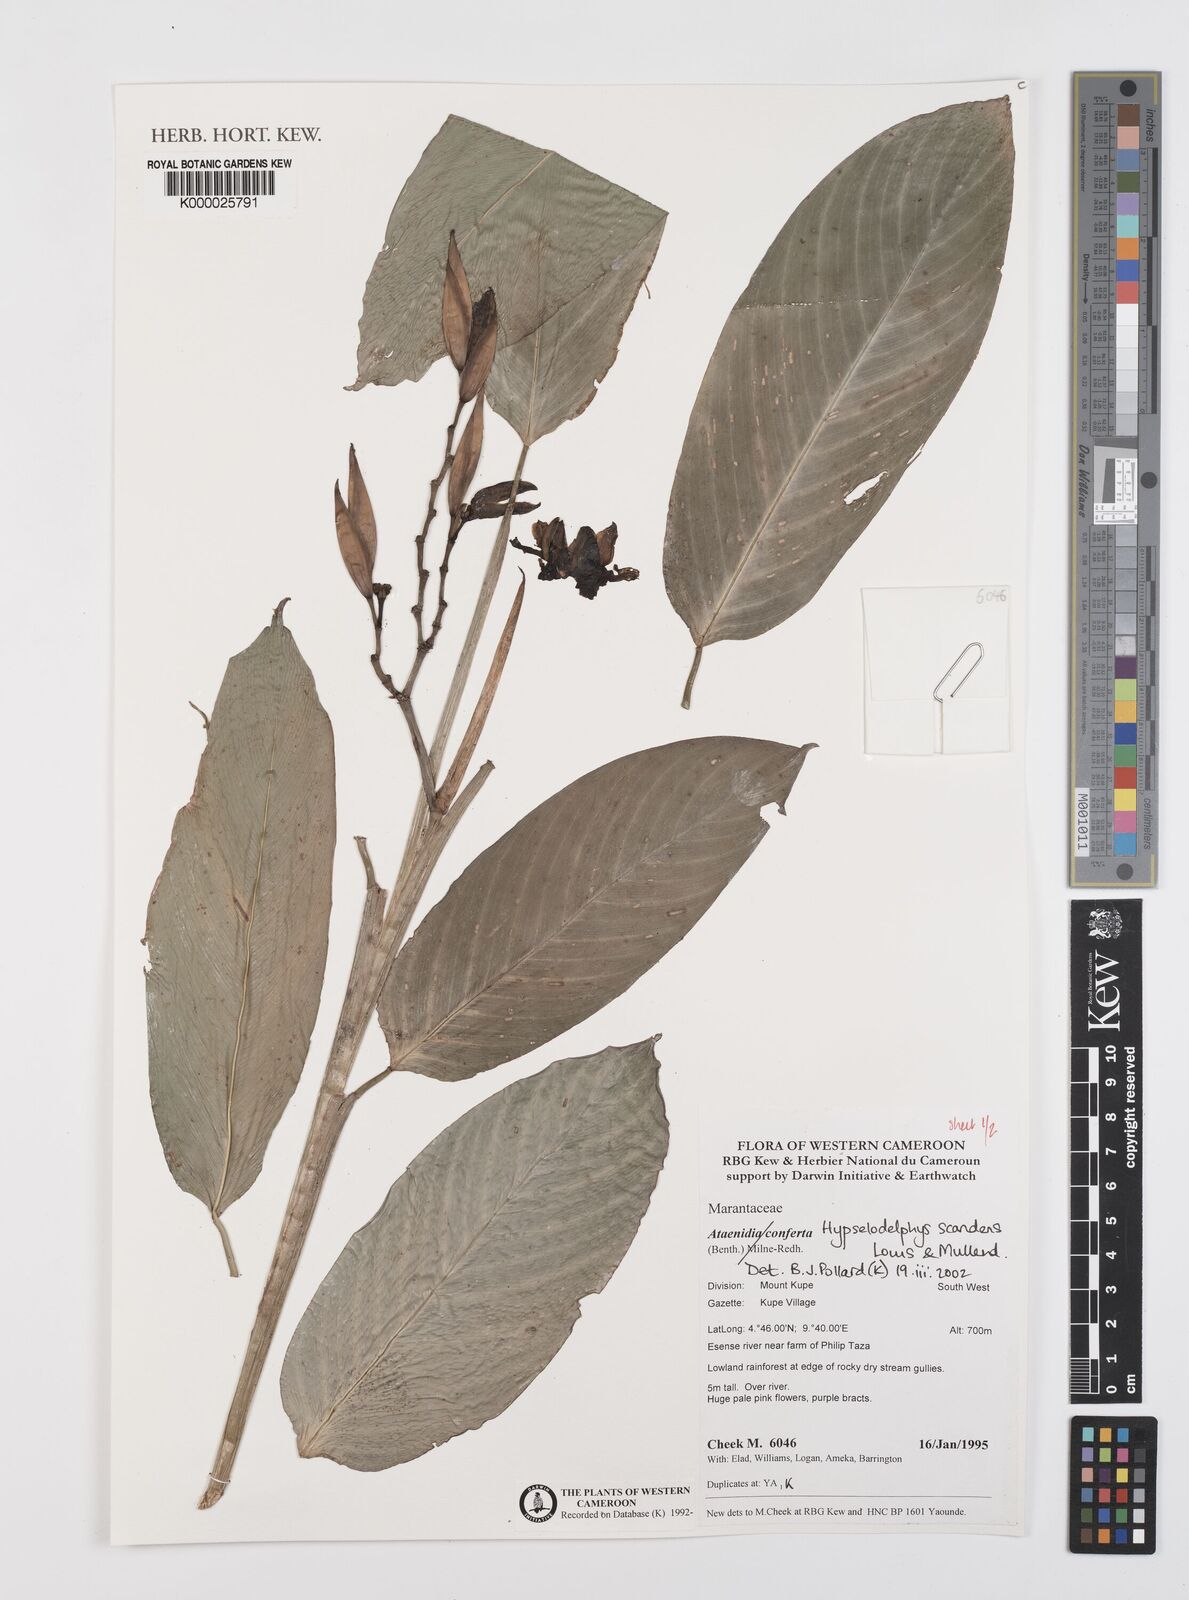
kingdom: Plantae
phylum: Tracheophyta
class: Liliopsida
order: Zingiberales
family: Marantaceae
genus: Hypselodelphys
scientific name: Hypselodelphys scandens
